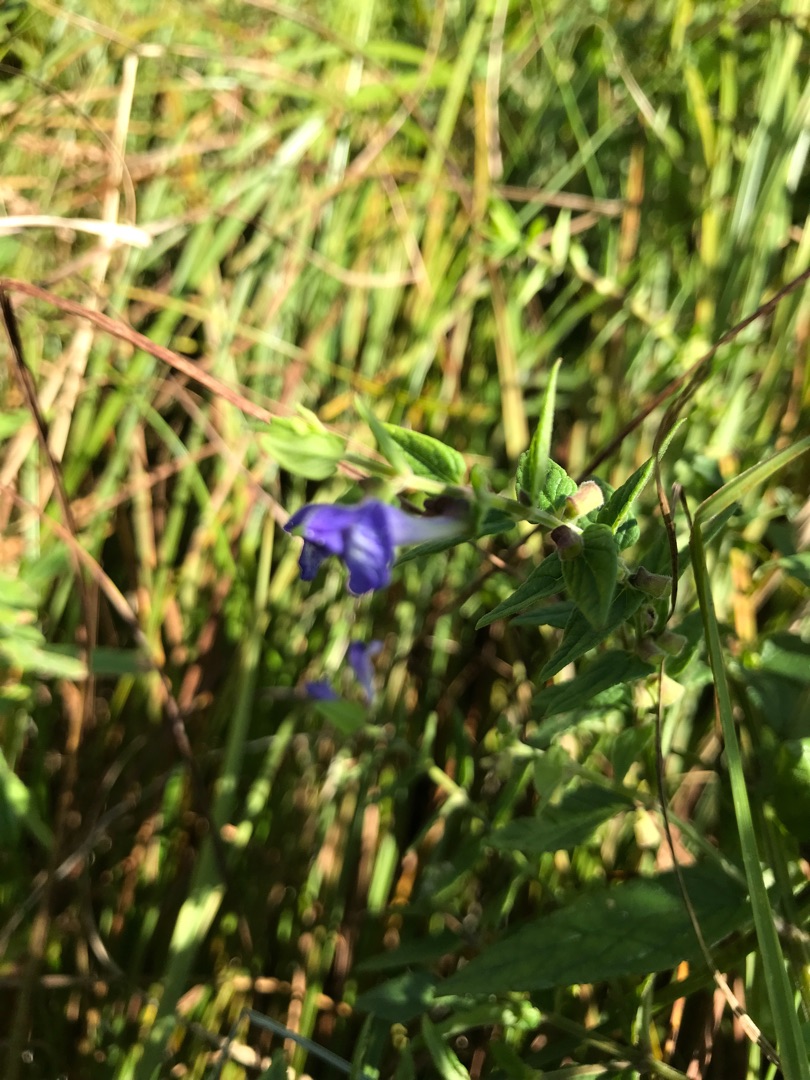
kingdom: Plantae
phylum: Tracheophyta
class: Magnoliopsida
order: Lamiales
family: Lamiaceae
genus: Scutellaria
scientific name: Scutellaria galericulata
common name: Almindelig skjolddrager
